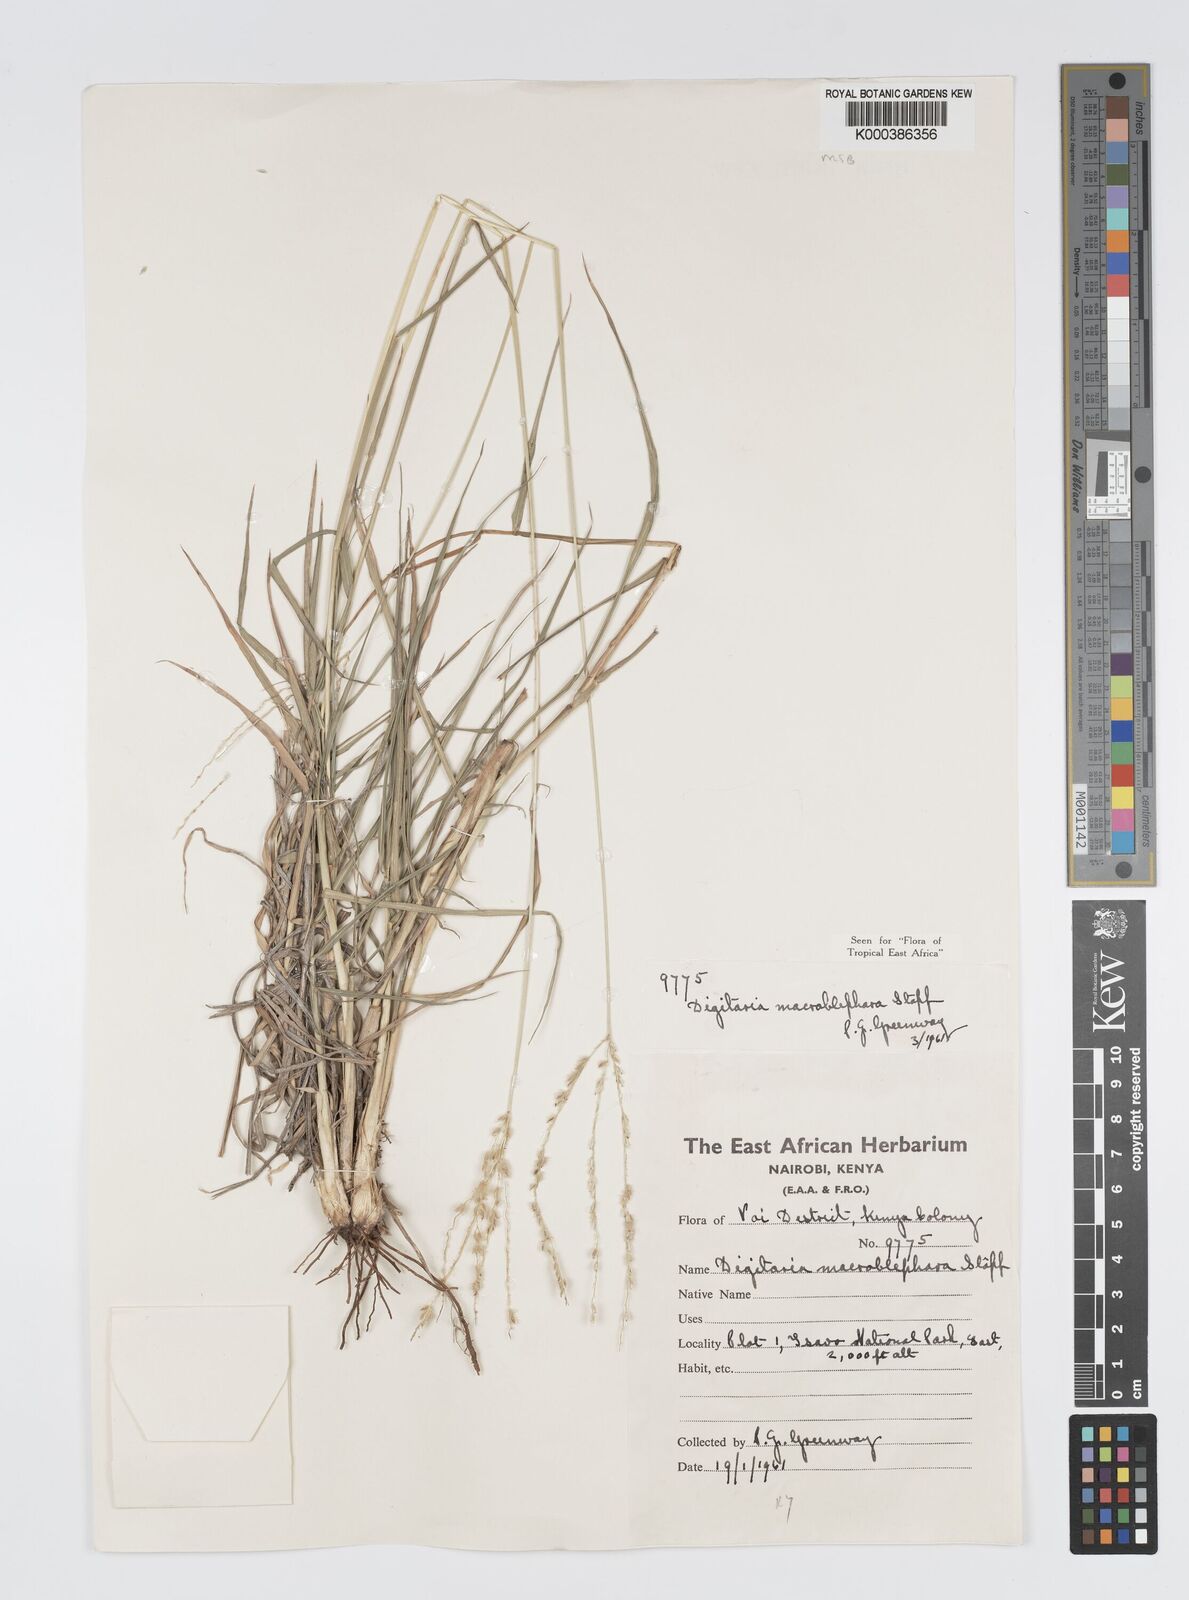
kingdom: Plantae
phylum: Tracheophyta
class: Liliopsida
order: Poales
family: Poaceae
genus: Digitaria
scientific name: Digitaria macroblephara
